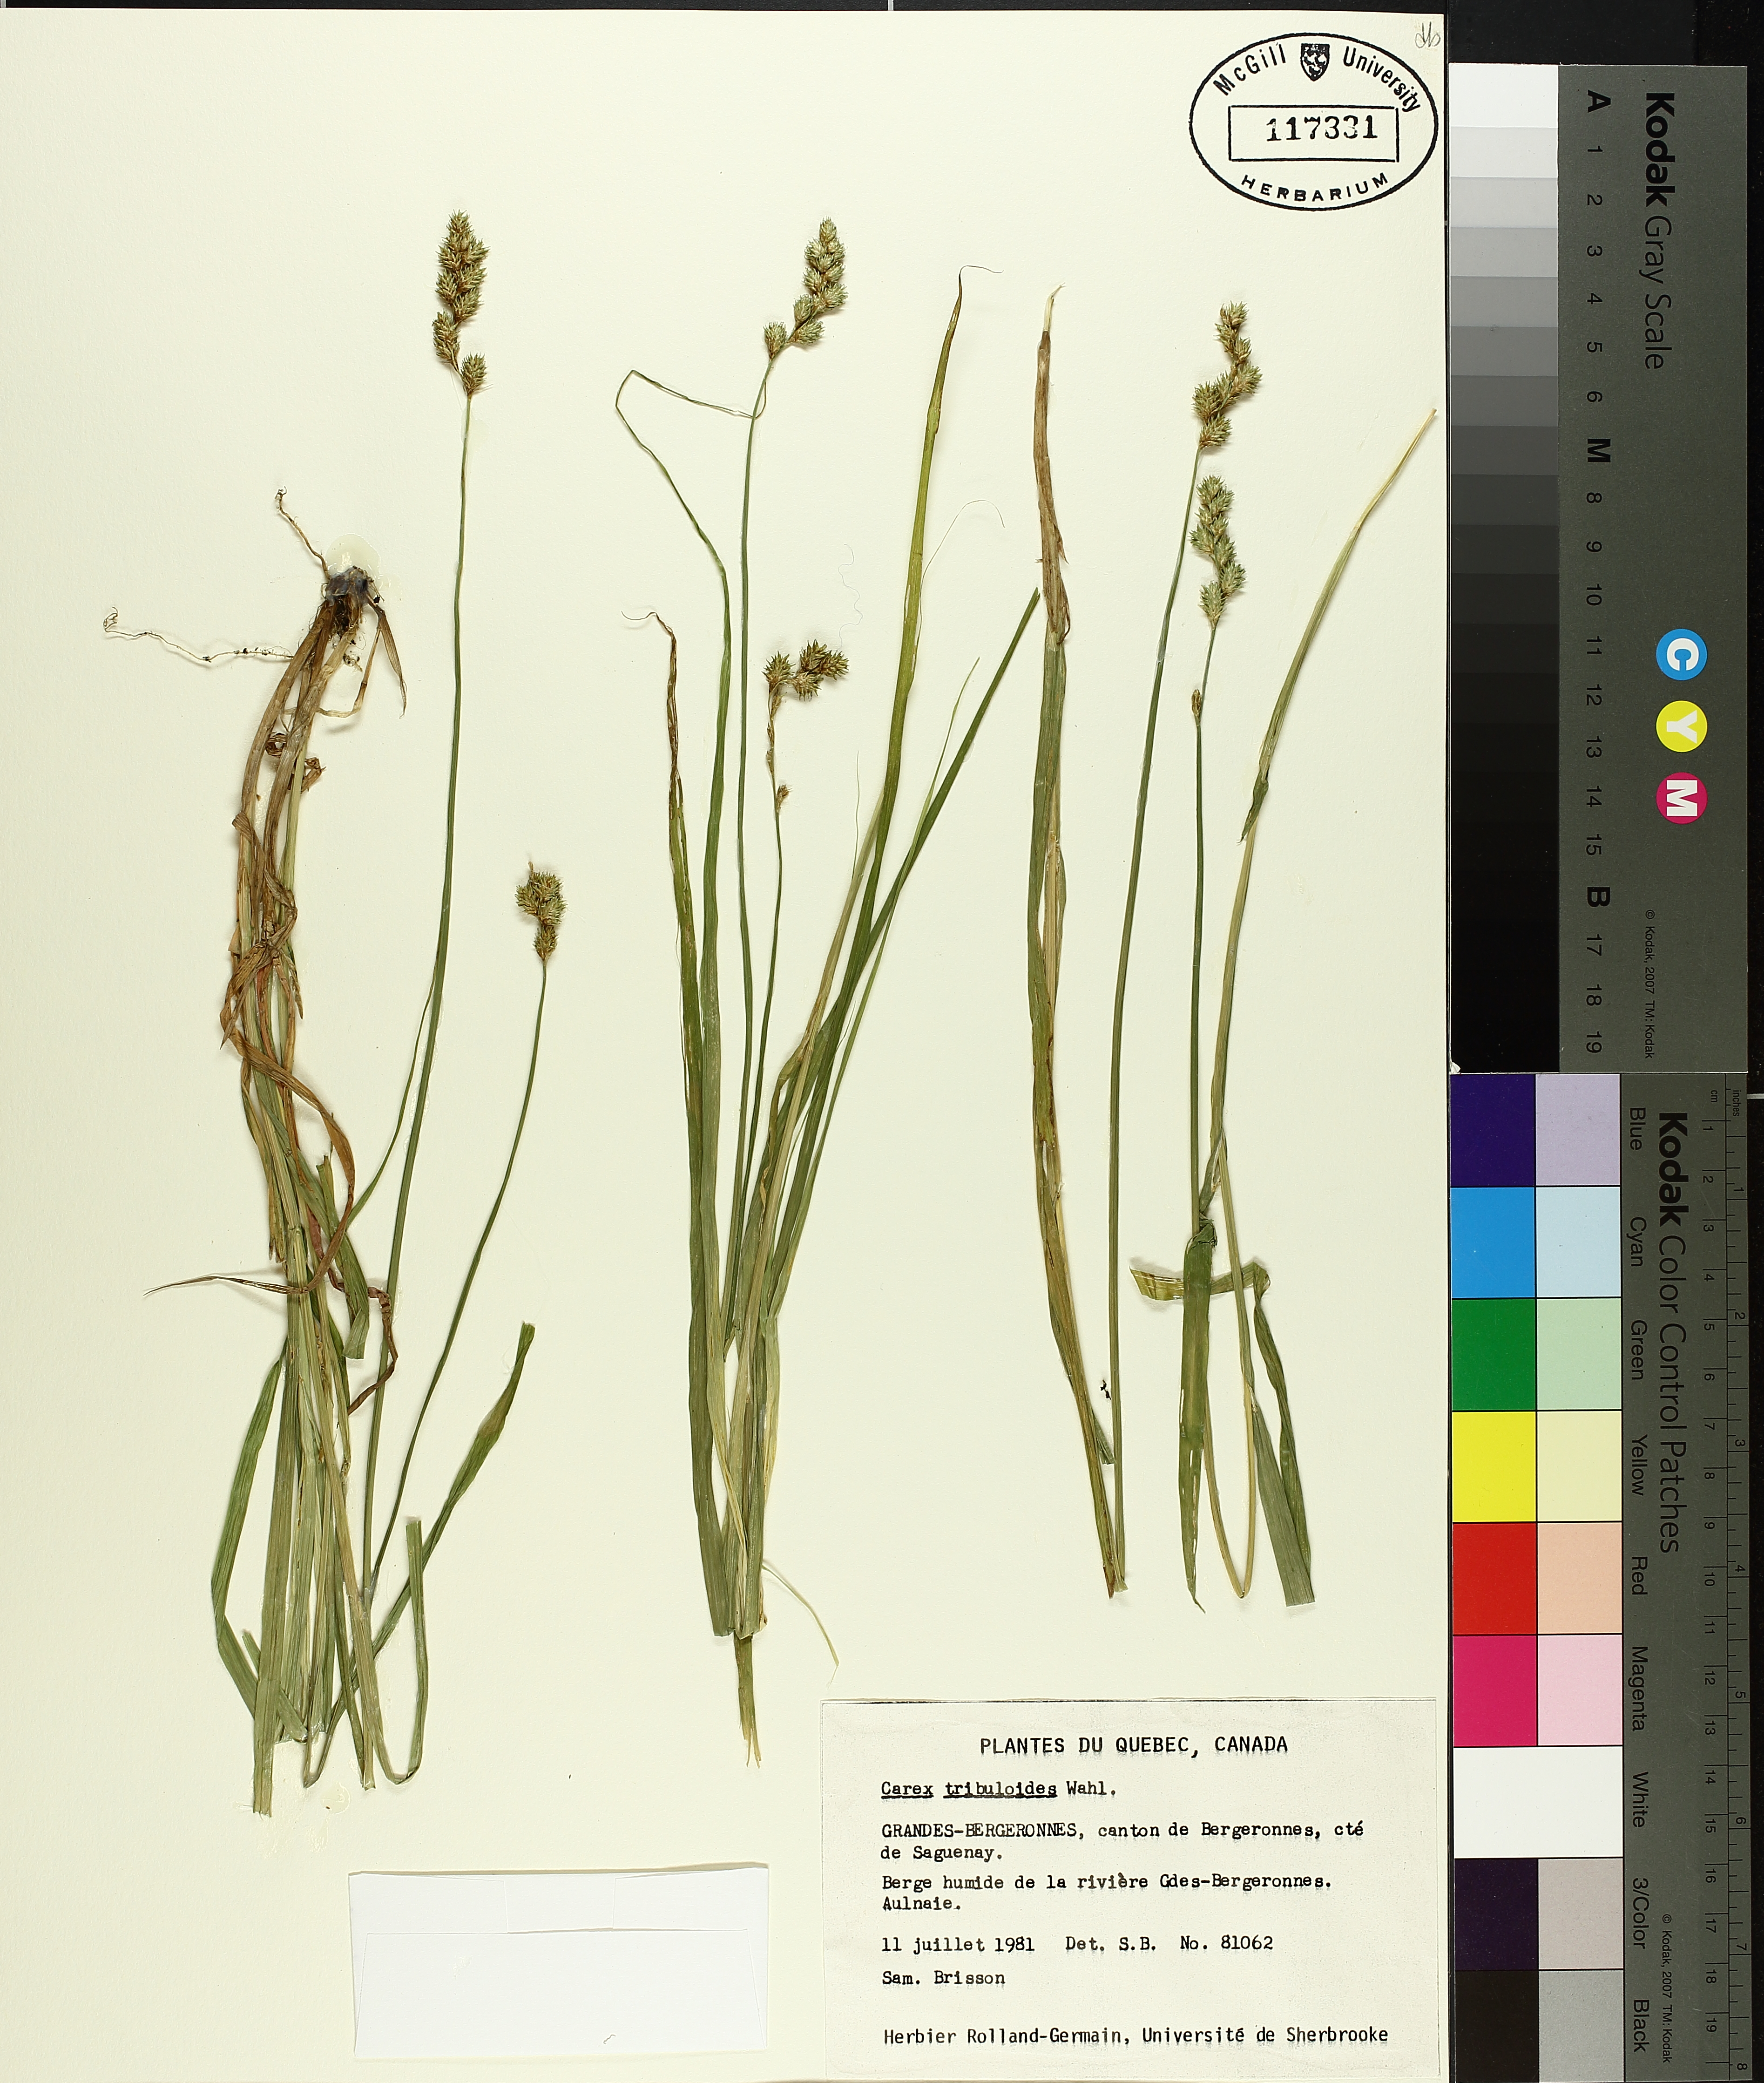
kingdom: Plantae
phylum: Tracheophyta
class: Liliopsida
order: Poales
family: Cyperaceae
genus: Carex
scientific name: Carex tribuloides
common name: Blunt broom sedge
